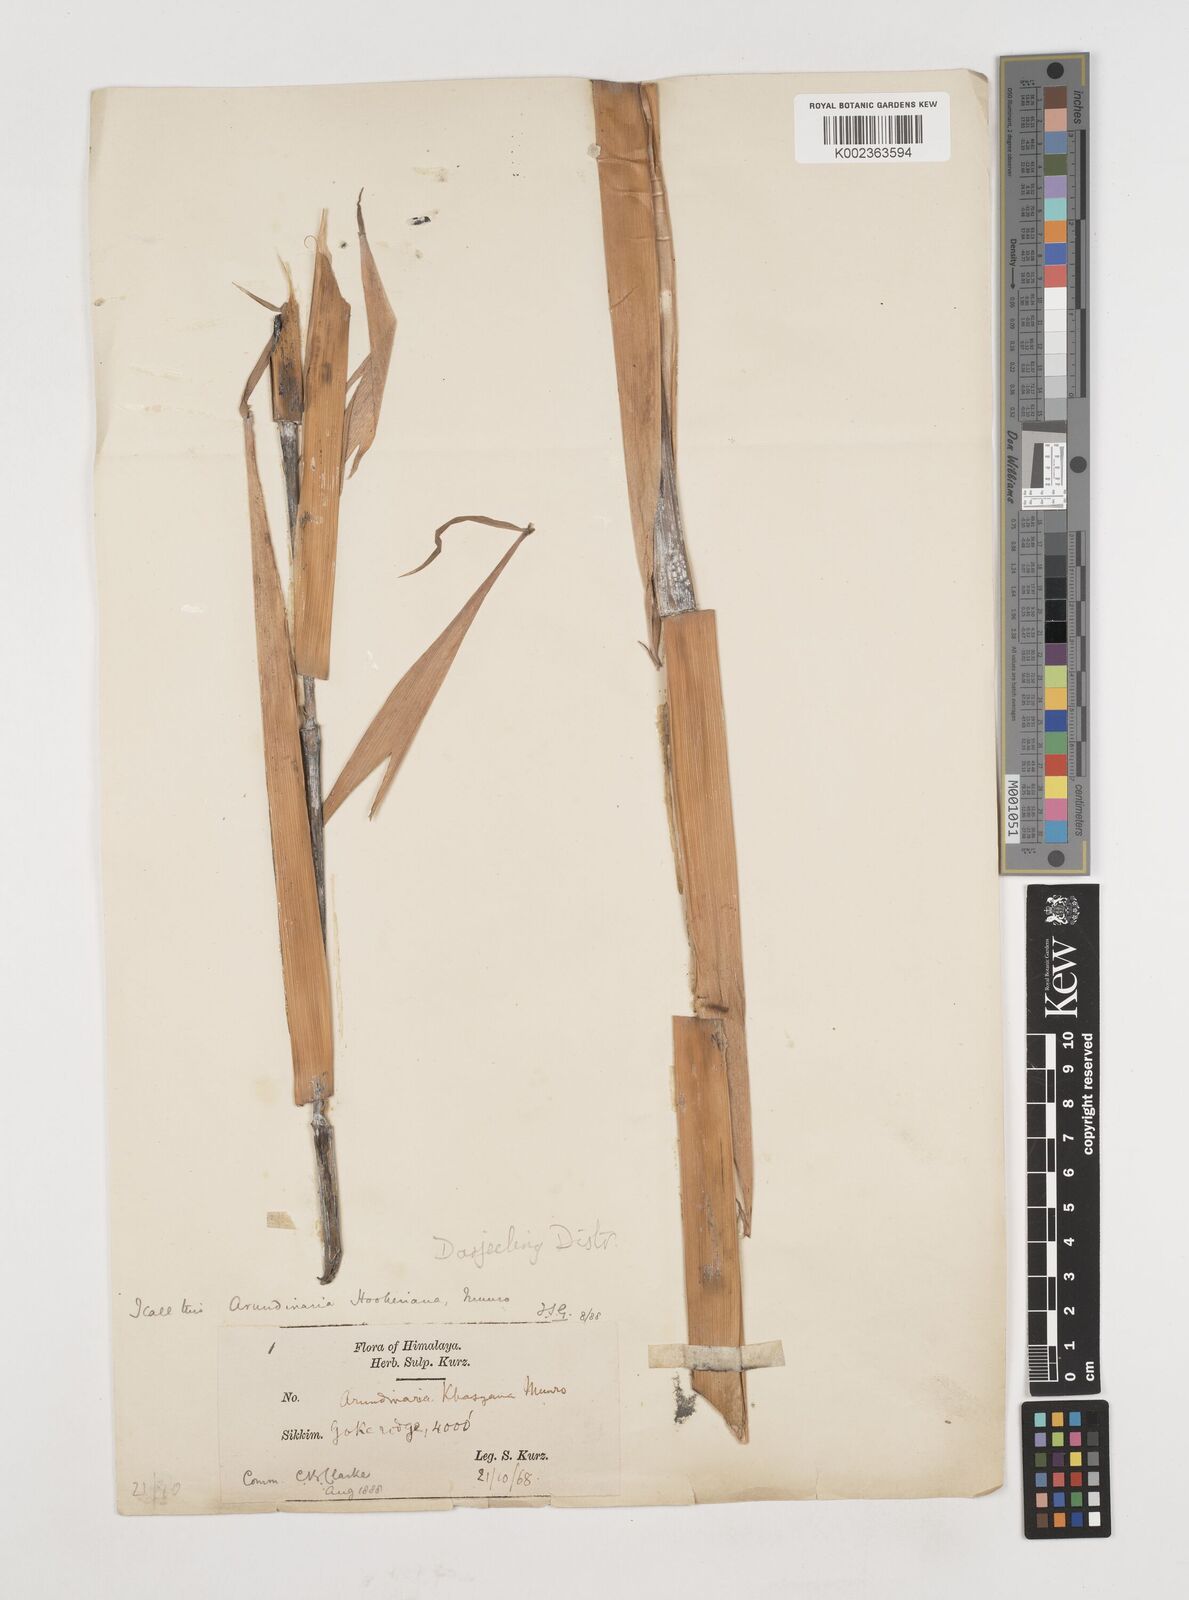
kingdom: Plantae
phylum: Tracheophyta
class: Liliopsida
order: Poales
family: Poaceae
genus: Himalayacalamus
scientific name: Himalayacalamus hookerianus
